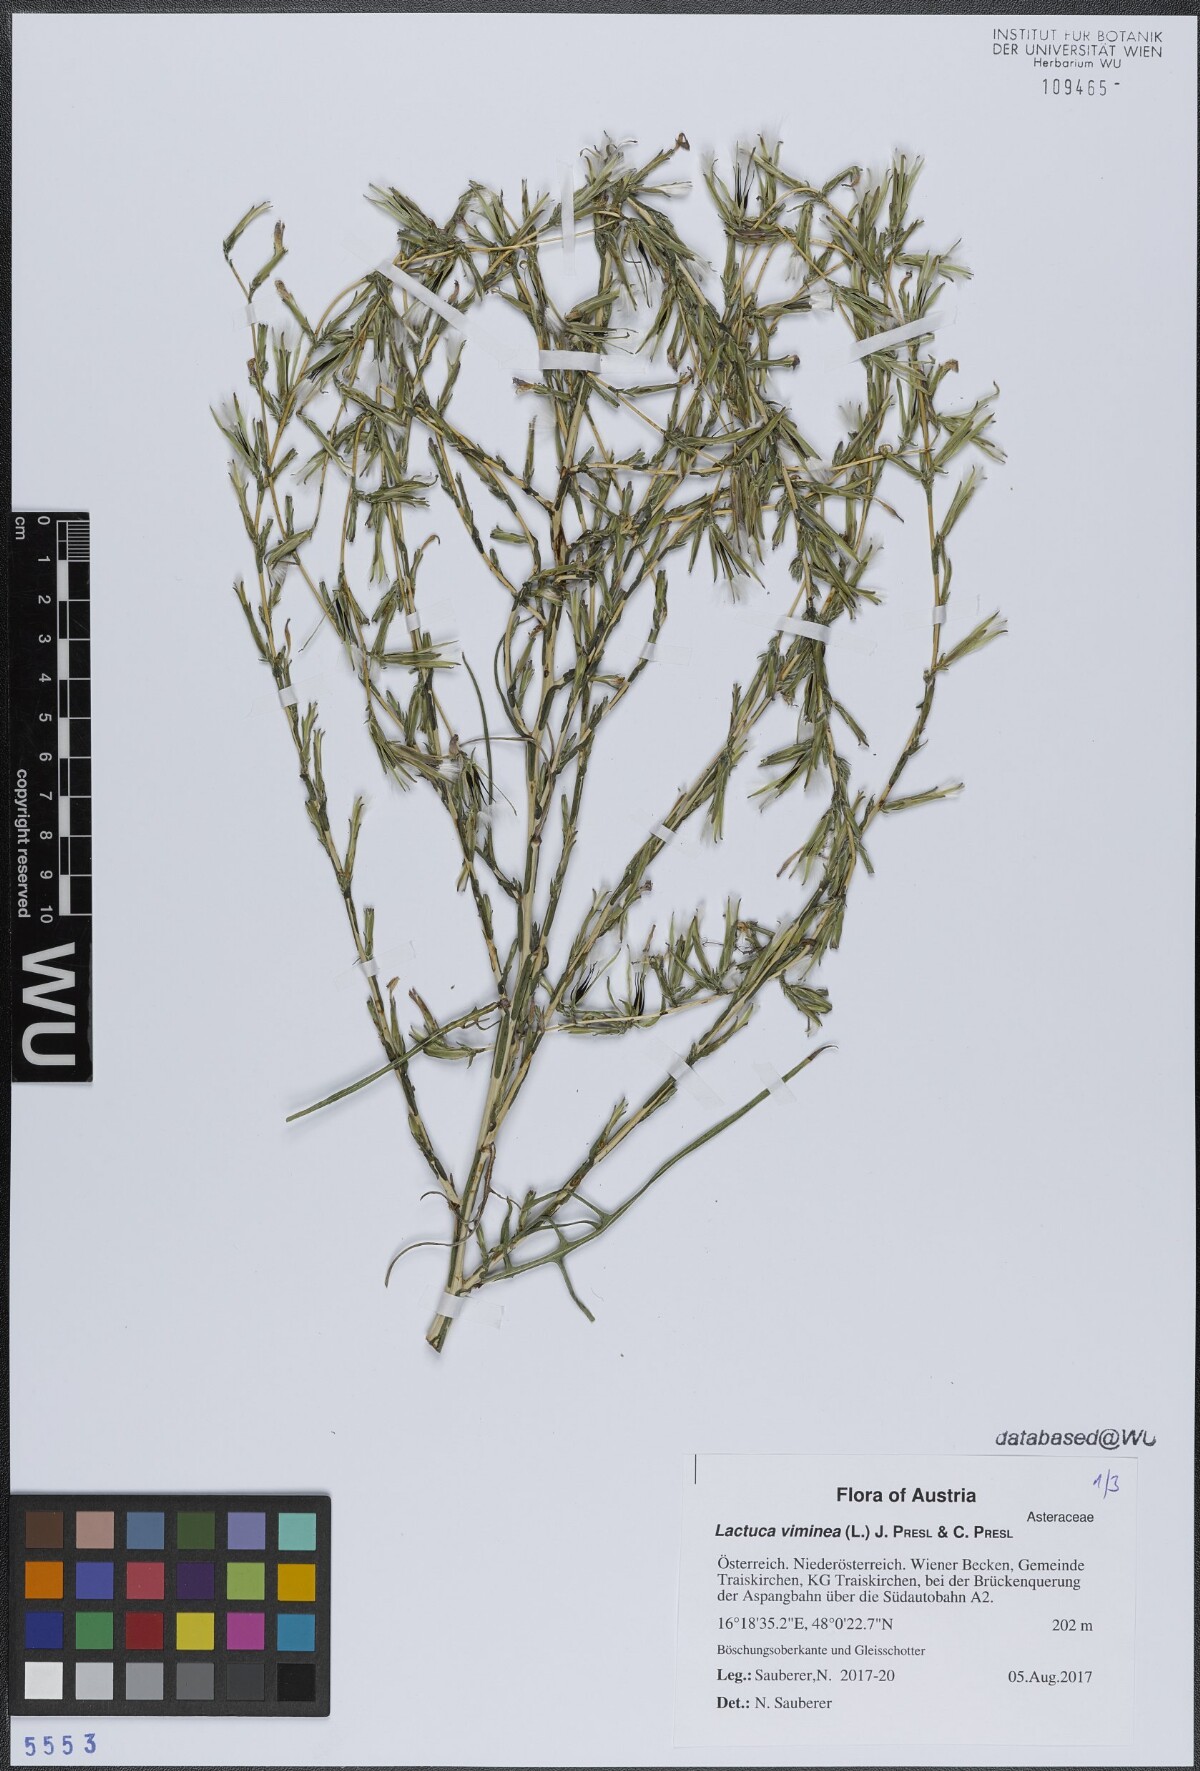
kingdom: Plantae
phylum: Tracheophyta
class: Magnoliopsida
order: Asterales
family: Asteraceae
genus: Lactuca
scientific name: Lactuca viminea
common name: Pliant lettuce
